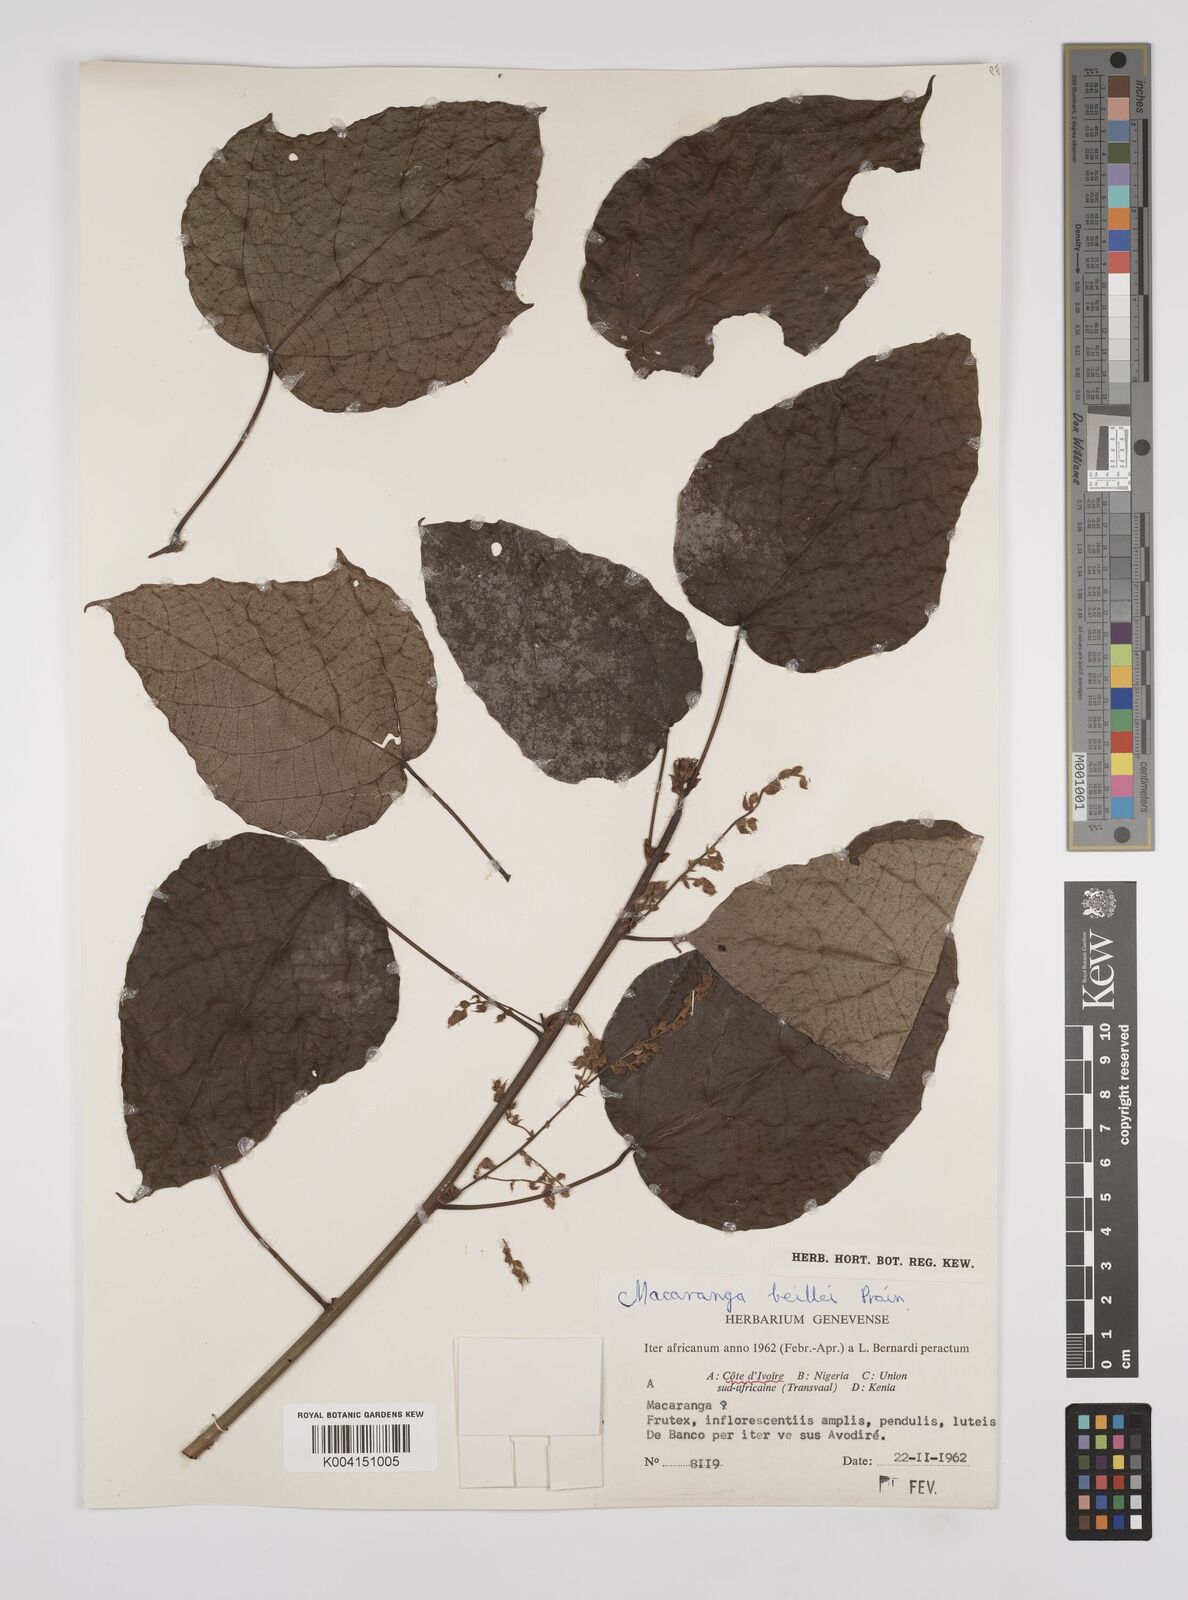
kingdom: Plantae
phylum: Tracheophyta
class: Magnoliopsida
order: Malpighiales
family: Euphorbiaceae
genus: Macaranga
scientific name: Macaranga beillei
